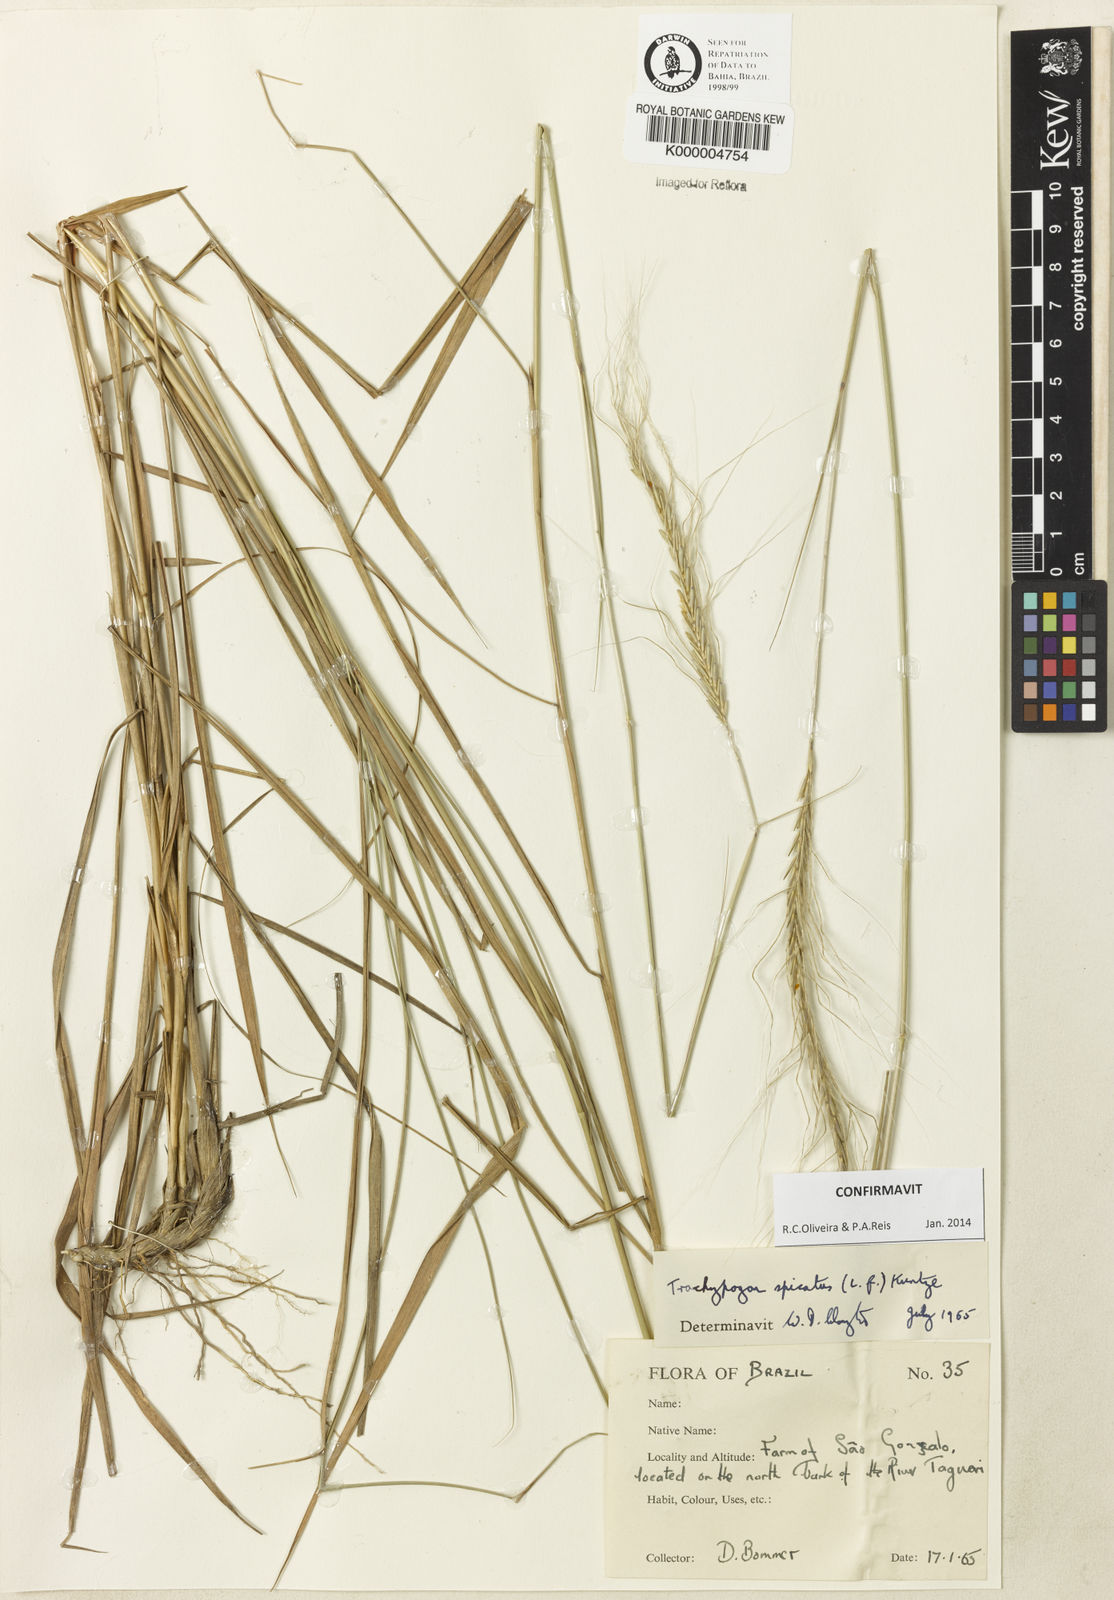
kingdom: Plantae
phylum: Tracheophyta
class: Liliopsida
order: Poales
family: Poaceae
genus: Trachypogon
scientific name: Trachypogon spicatus
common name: Crinkle-awn
